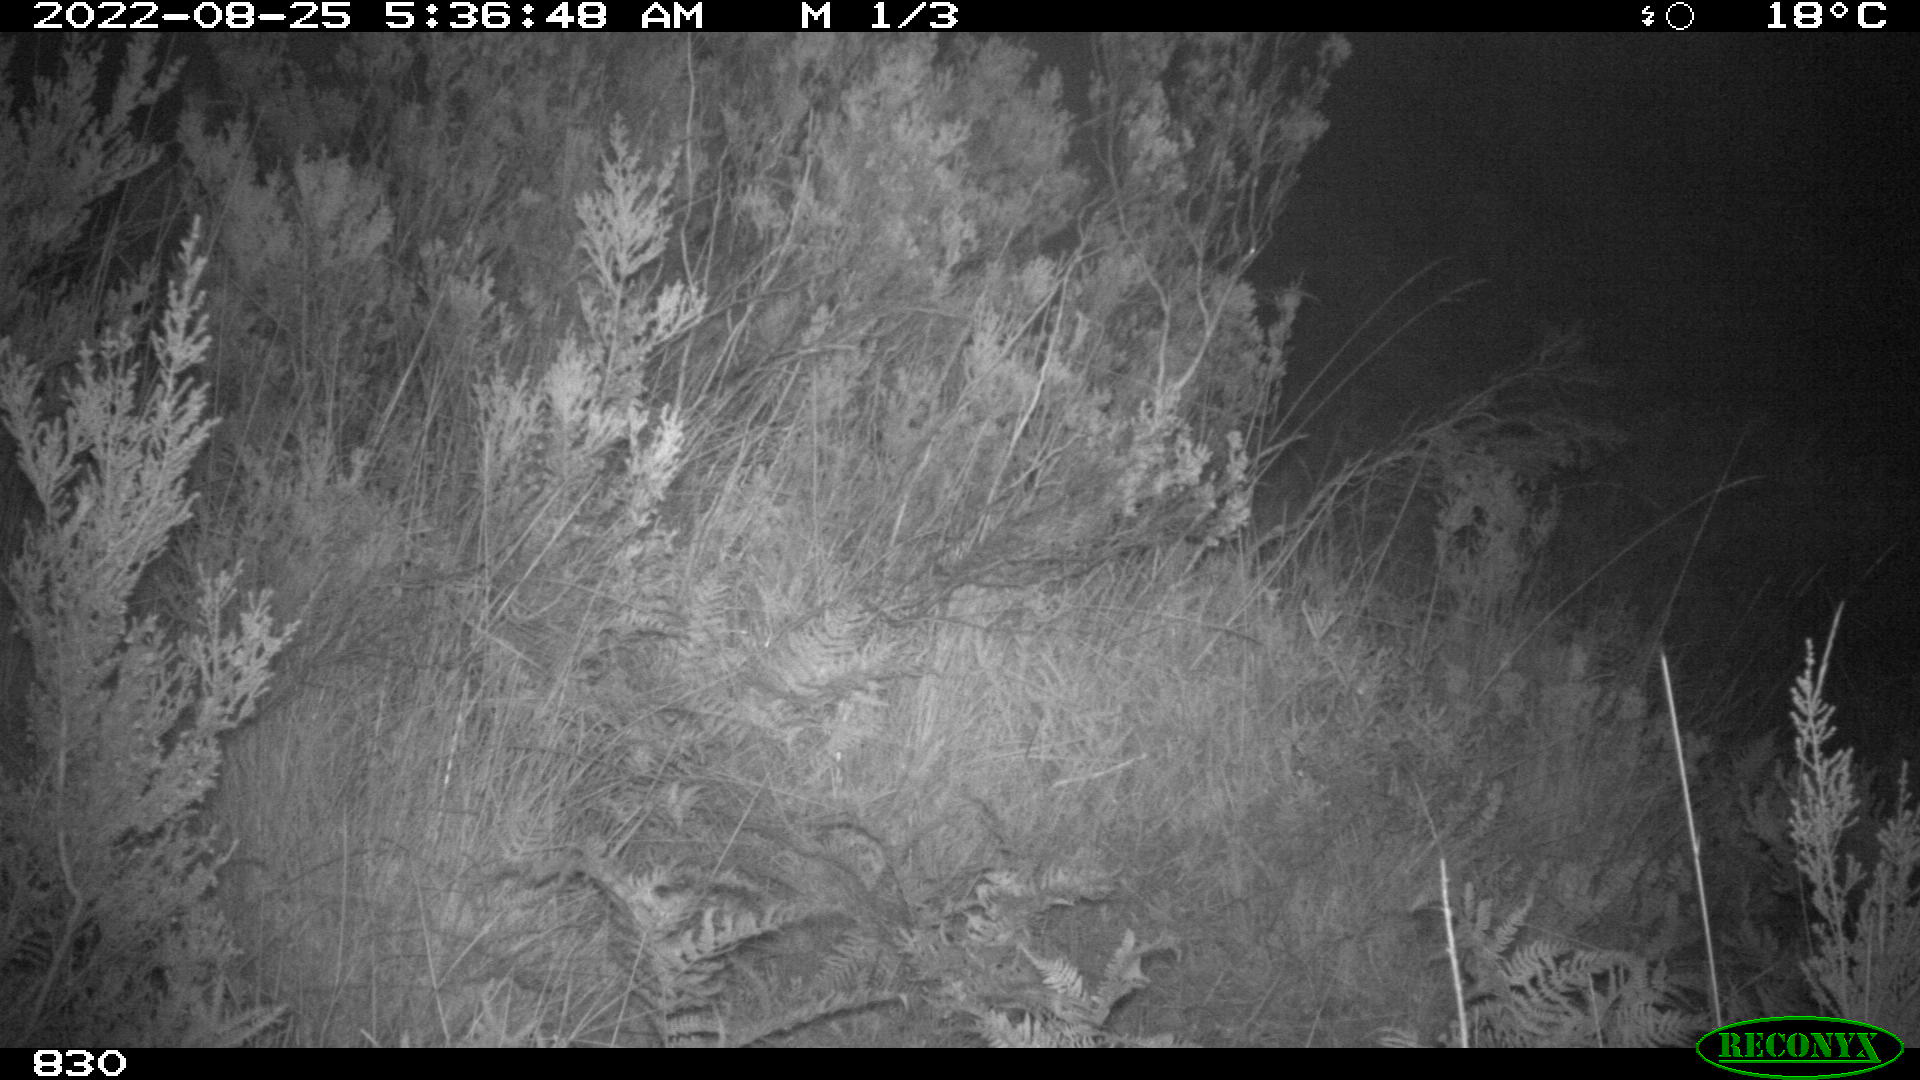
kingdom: Animalia
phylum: Chordata
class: Mammalia
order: Perissodactyla
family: Equidae
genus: Equus
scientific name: Equus caballus
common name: Horse
